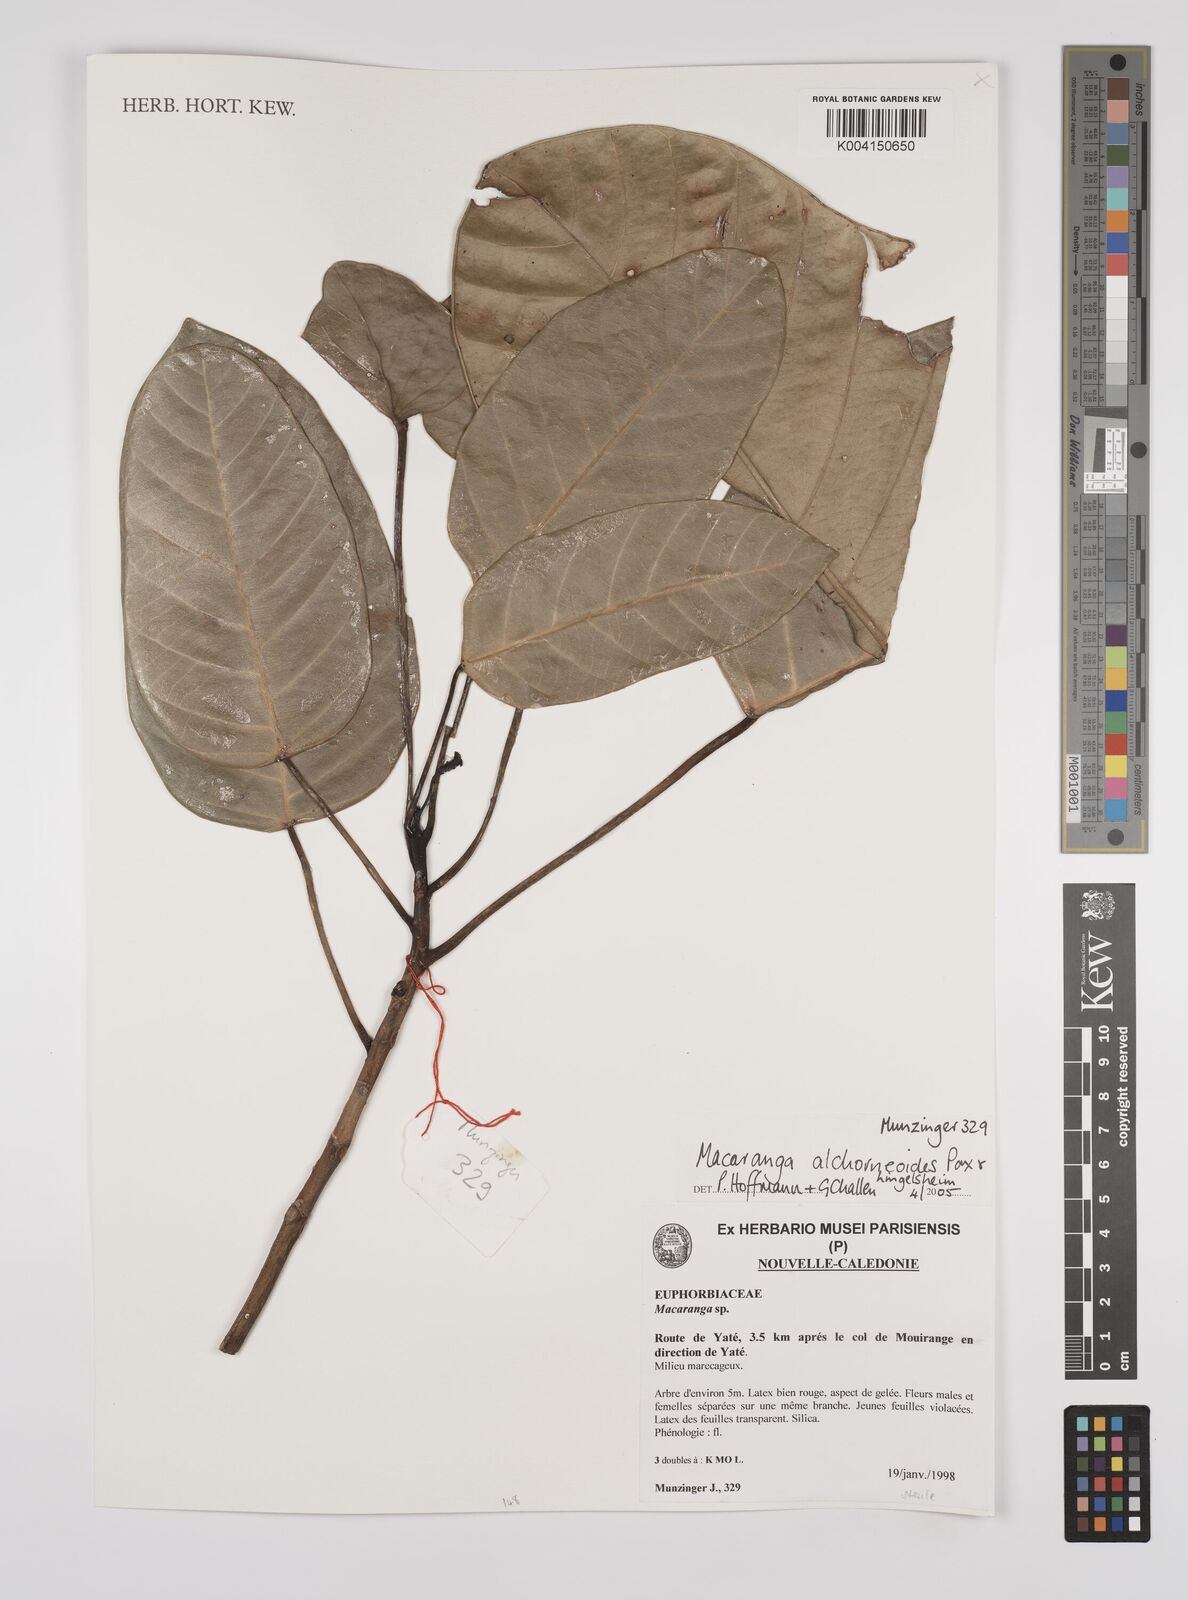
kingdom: Plantae
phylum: Tracheophyta
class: Magnoliopsida
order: Malpighiales
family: Euphorbiaceae
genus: Macaranga
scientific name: Macaranga alchorneoides
